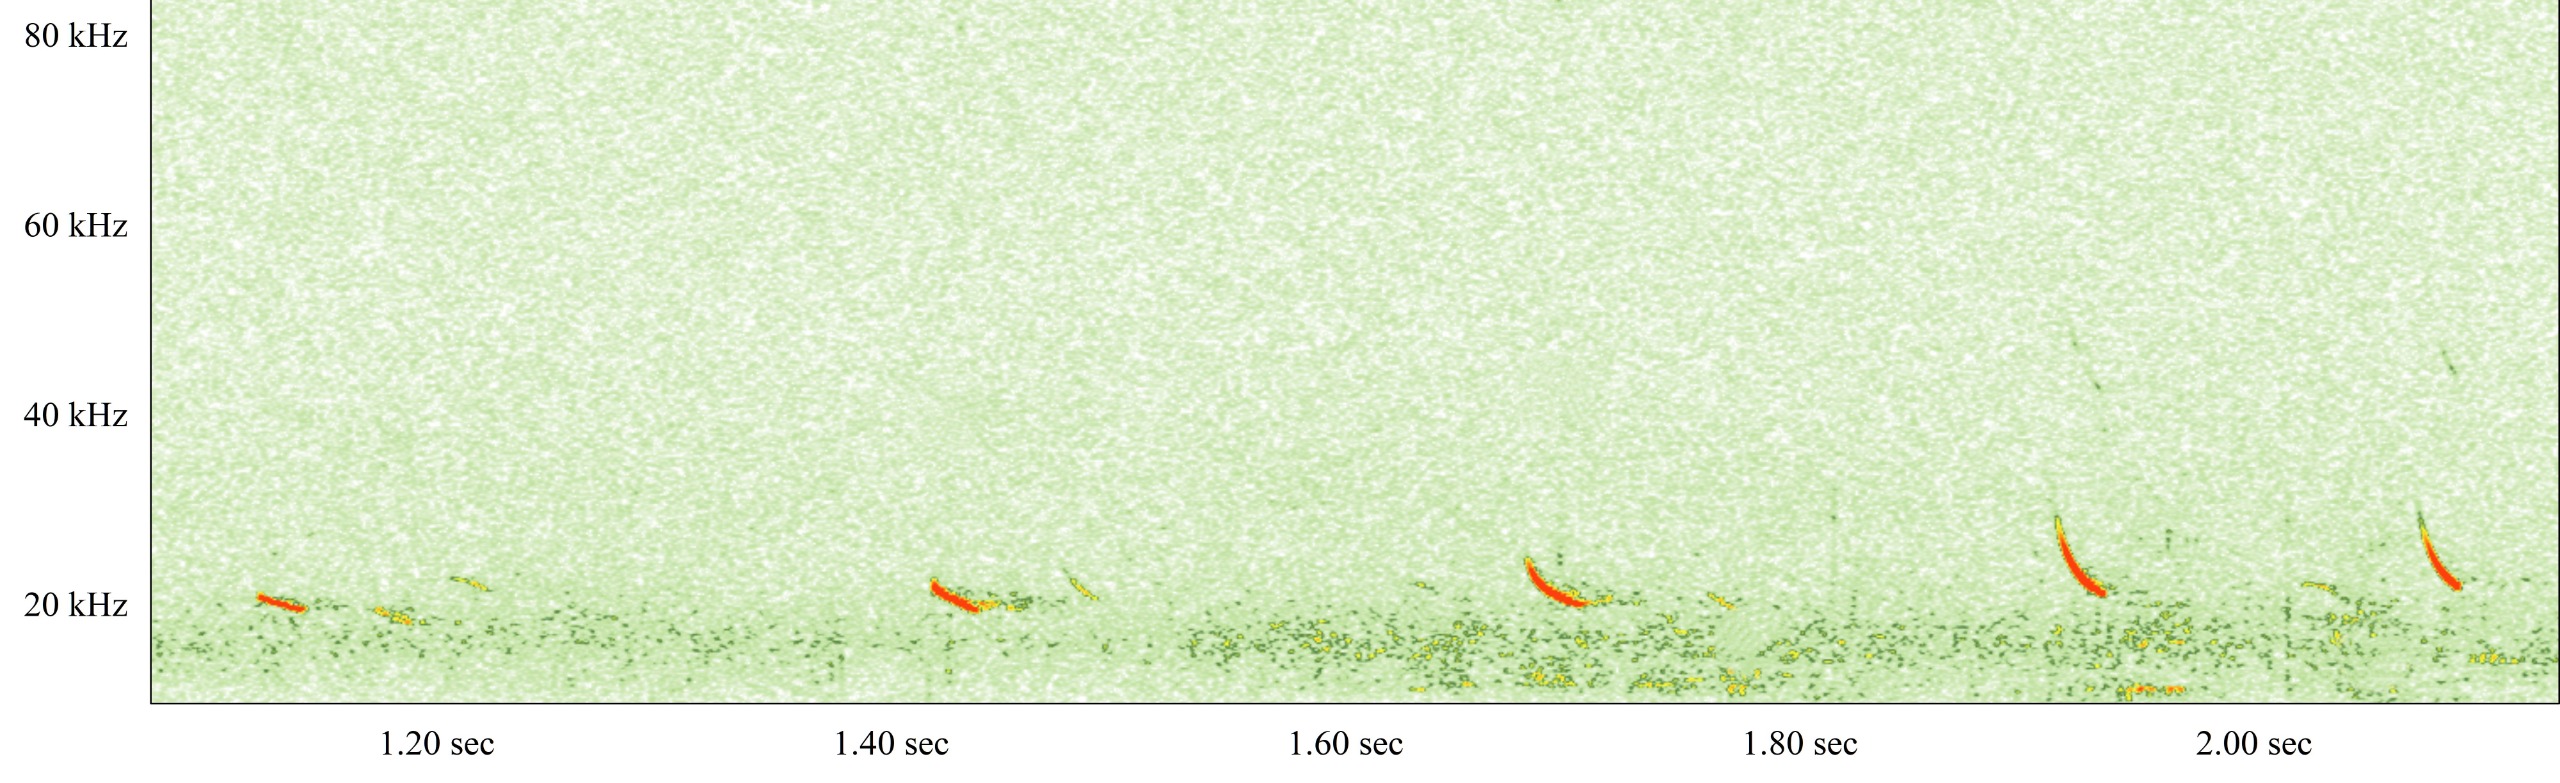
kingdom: Animalia
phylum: Chordata
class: Mammalia
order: Chiroptera
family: Vespertilionidae
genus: Nyctalus
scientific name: Nyctalus noctula
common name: Brunflagermus
